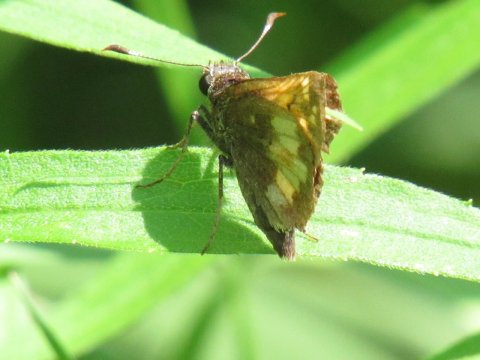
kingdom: Animalia
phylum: Arthropoda
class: Insecta
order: Lepidoptera
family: Hesperiidae
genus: Lon
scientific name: Lon hobomok
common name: Hobomok Skipper
